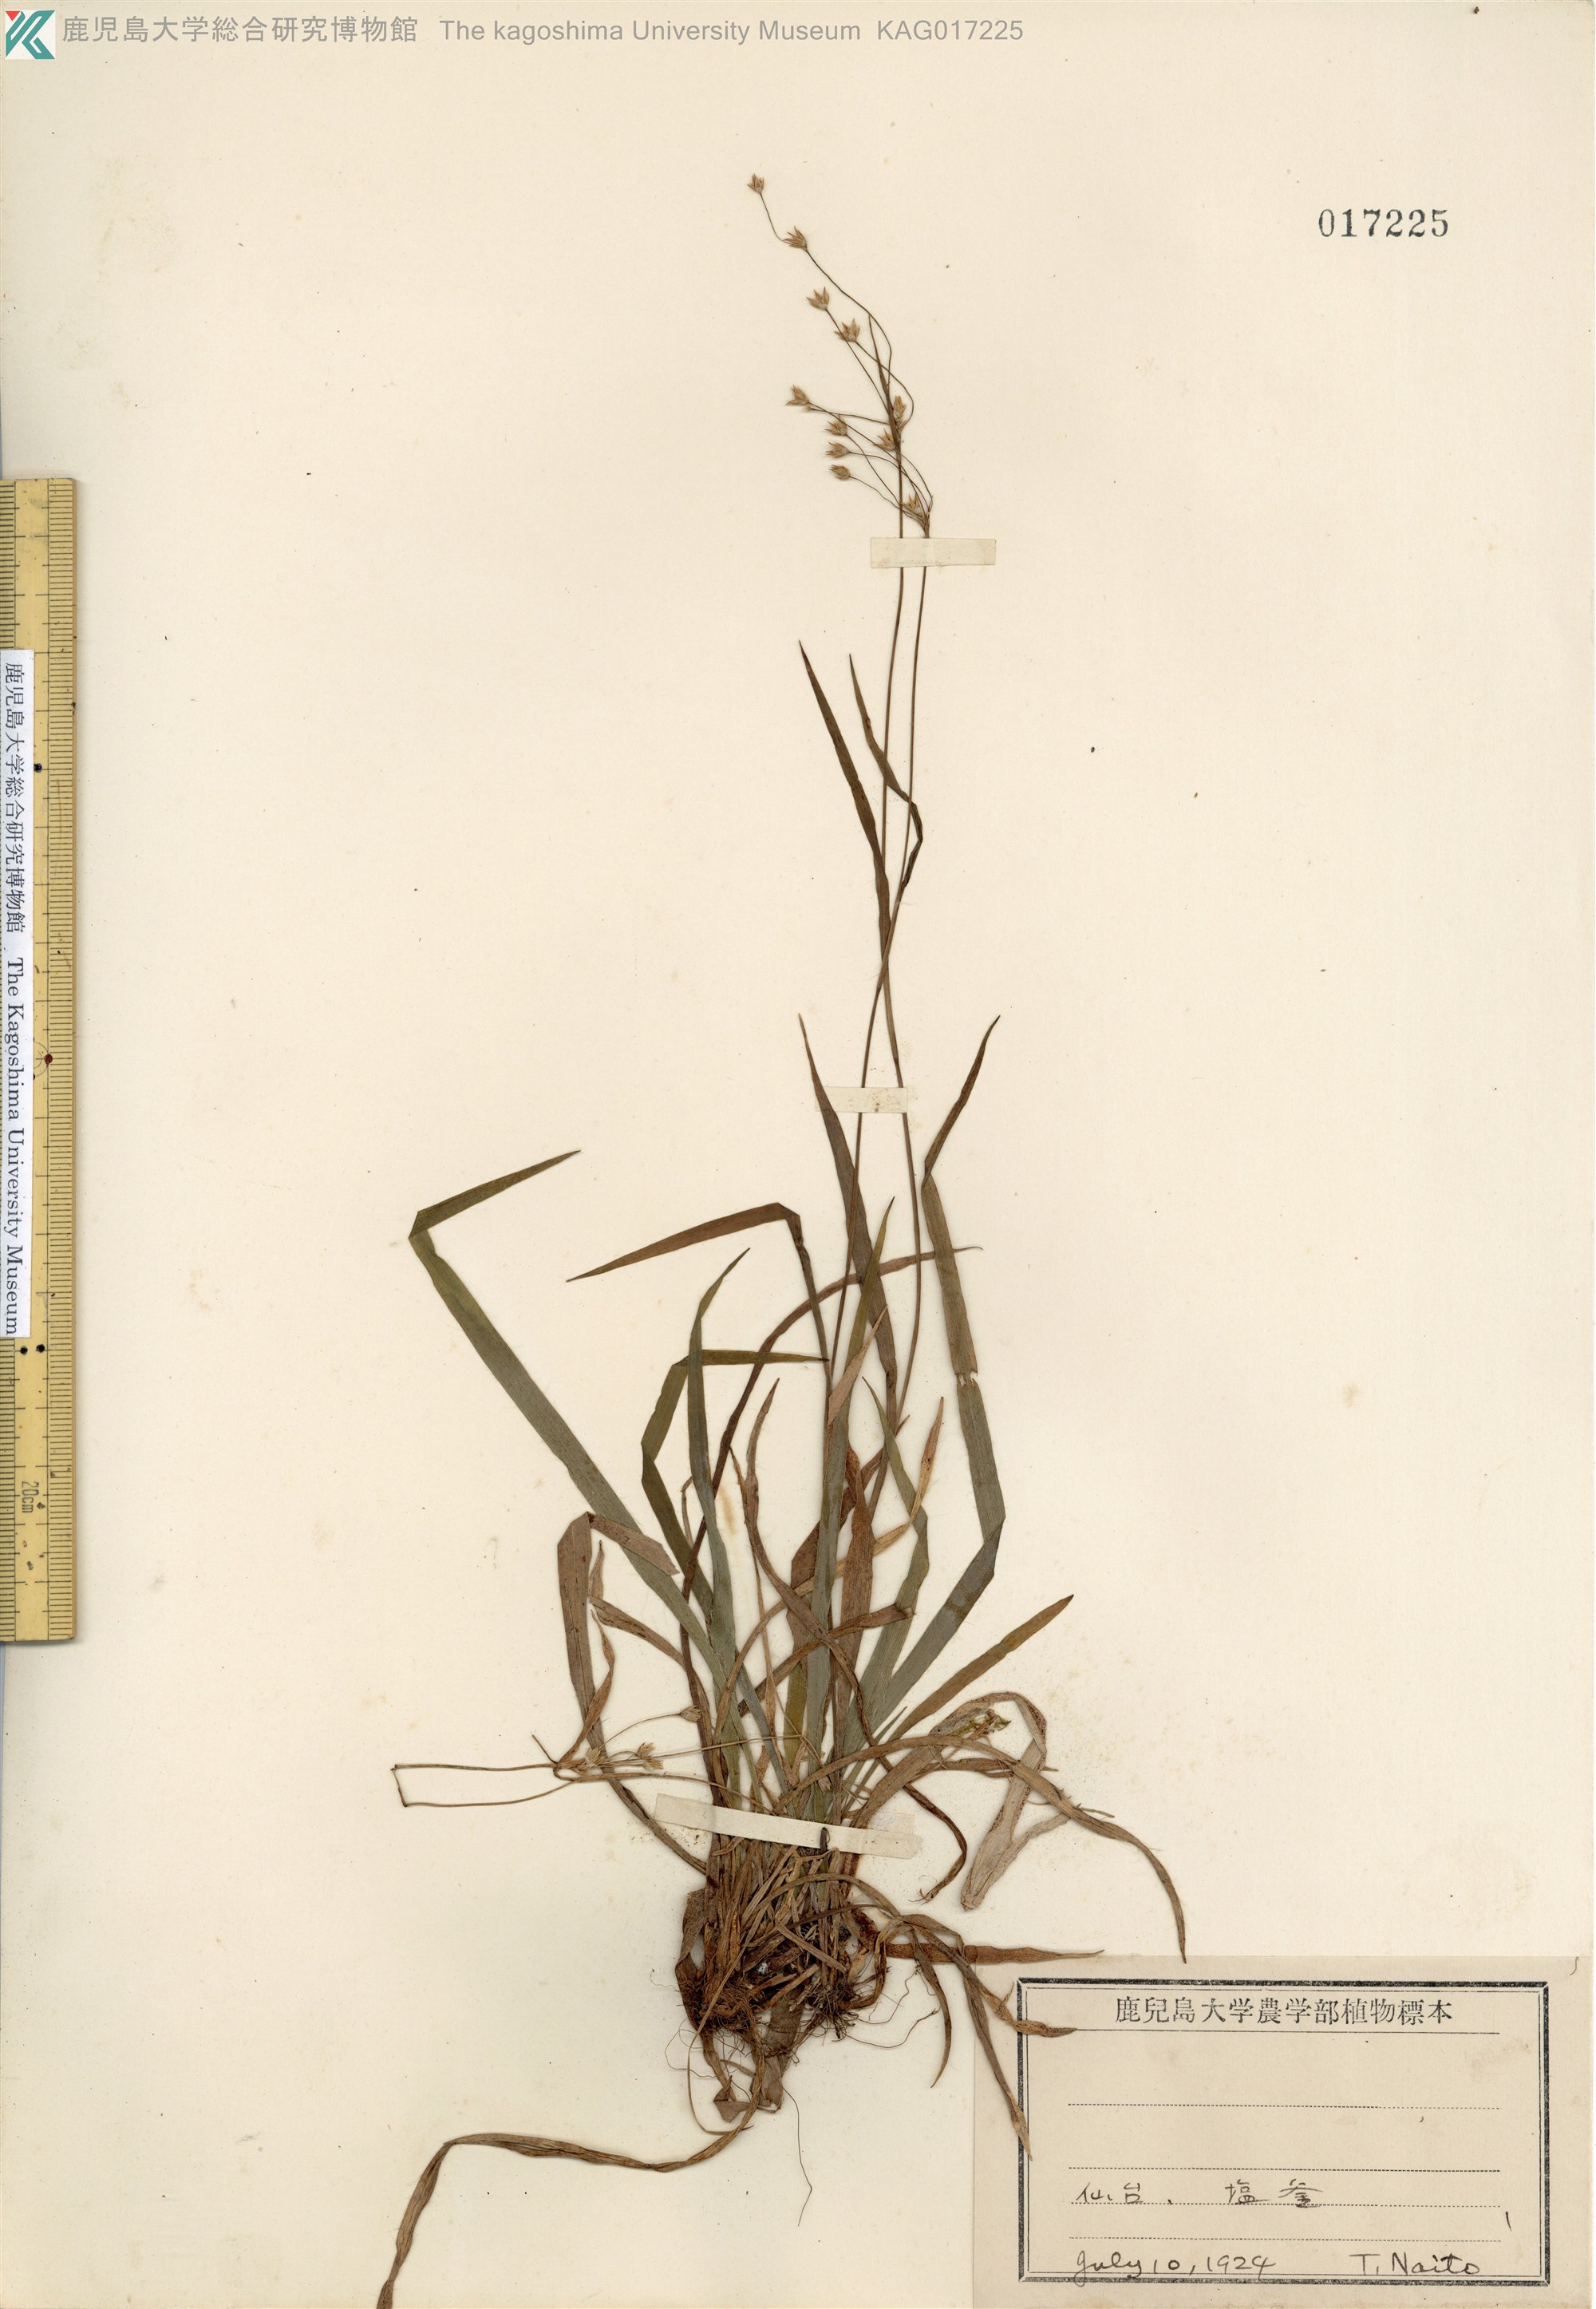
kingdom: Plantae
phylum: Tracheophyta
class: Liliopsida
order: Poales
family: Juncaceae
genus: Luzula
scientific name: Luzula plumosa
